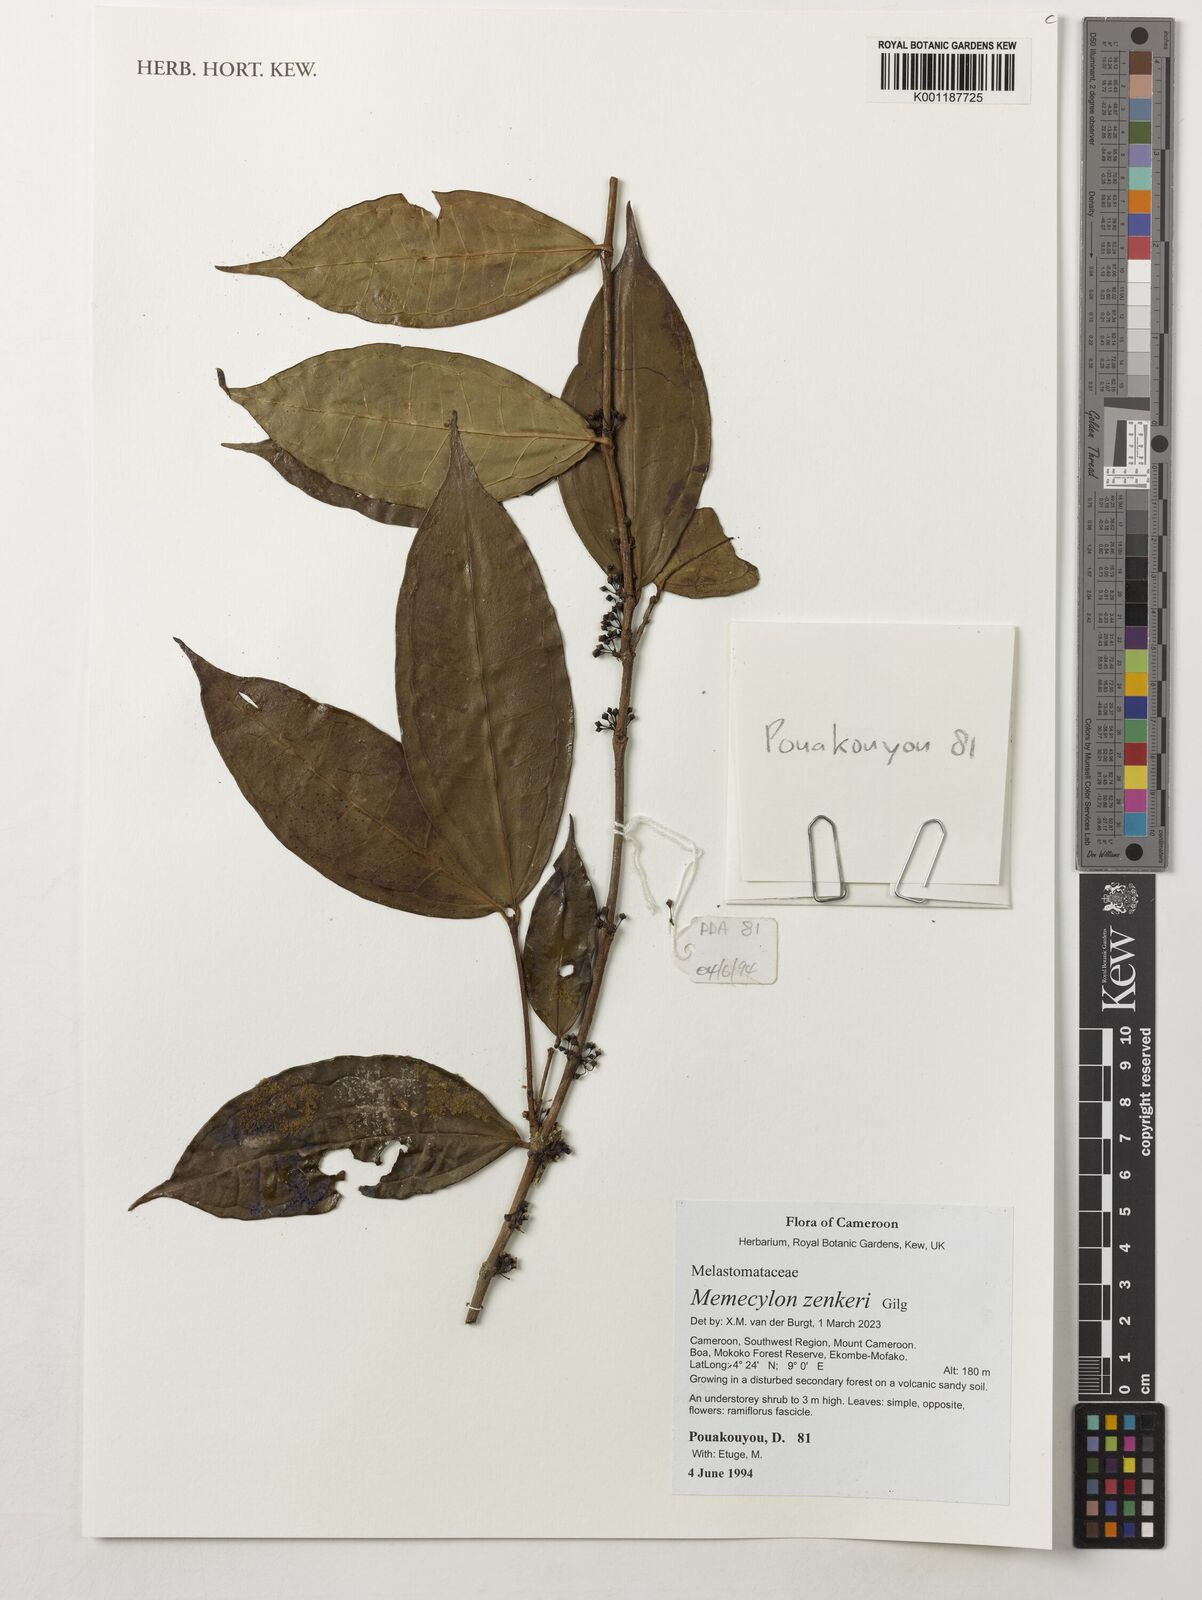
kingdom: Plantae
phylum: Tracheophyta
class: Magnoliopsida
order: Myrtales
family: Melastomataceae
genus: Memecylon
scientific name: Memecylon zenkeri
